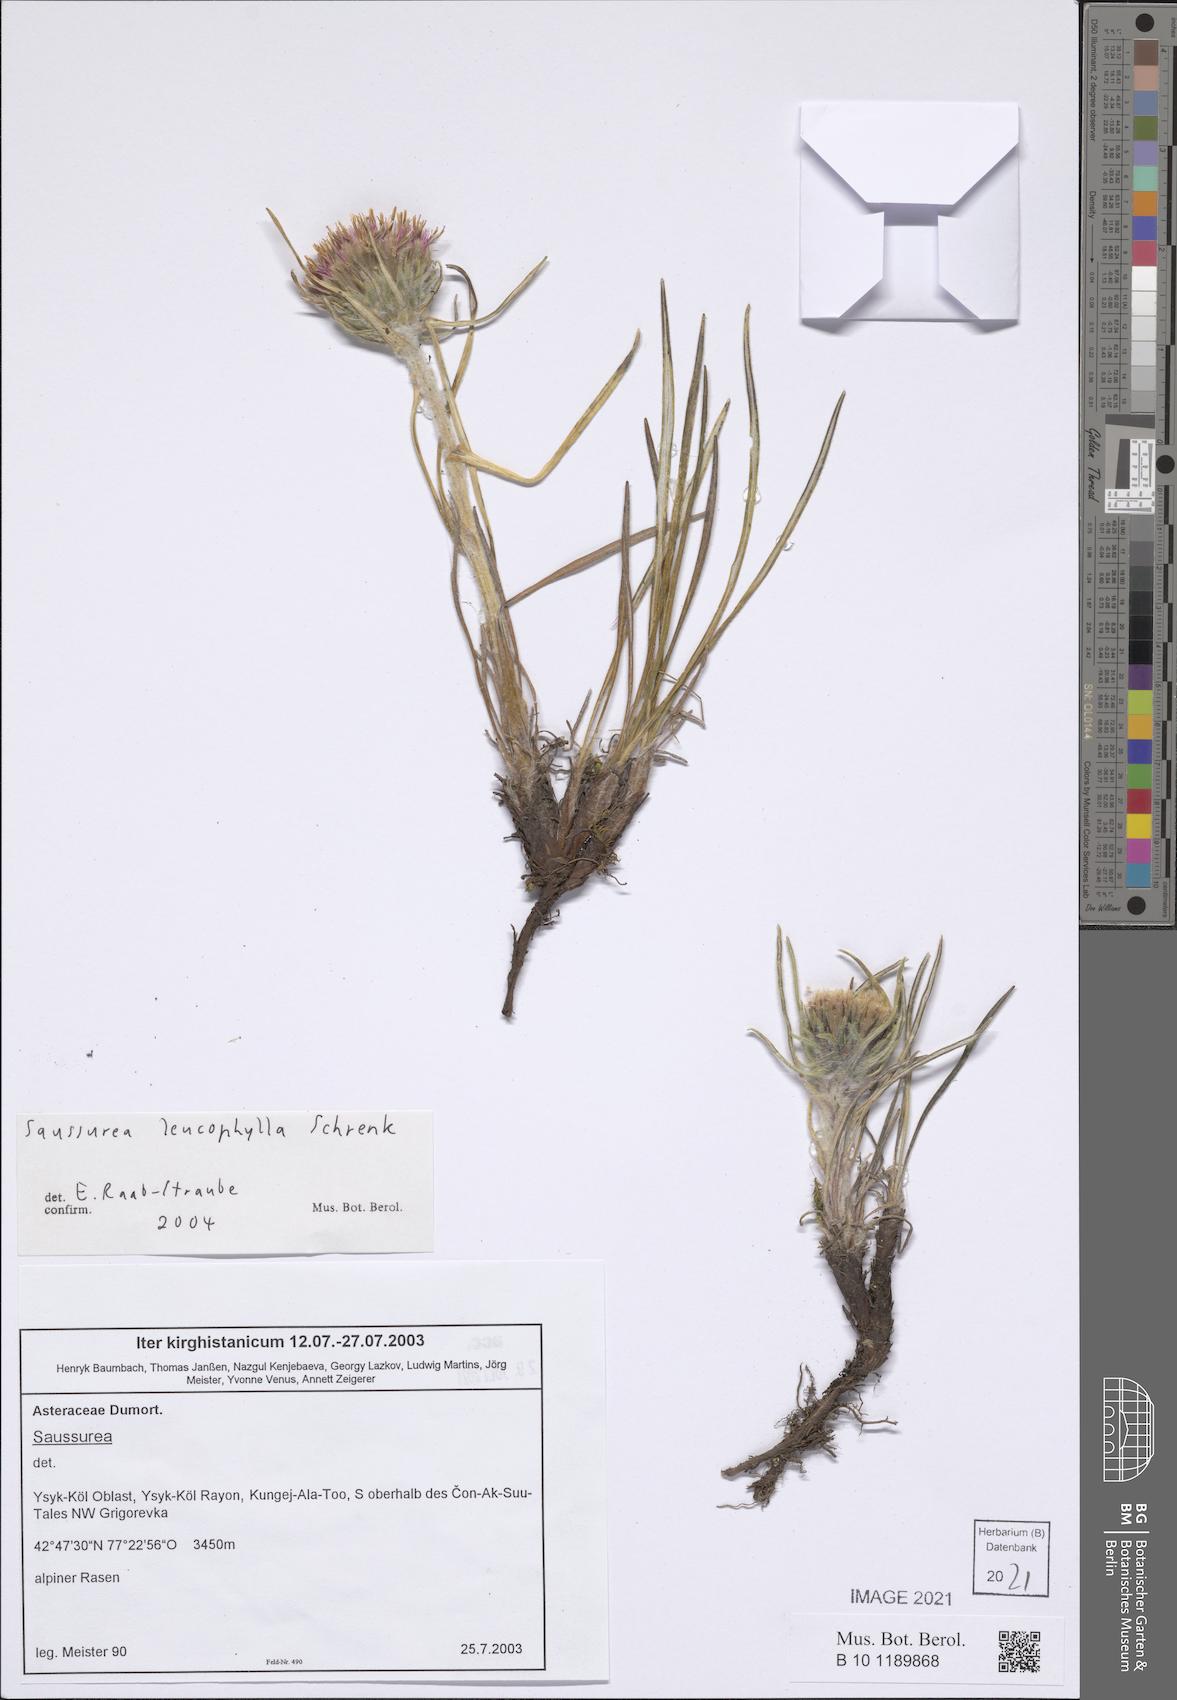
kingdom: Plantae
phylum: Tracheophyta
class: Magnoliopsida
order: Asterales
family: Asteraceae
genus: Saussurea
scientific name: Saussurea leucophylla
